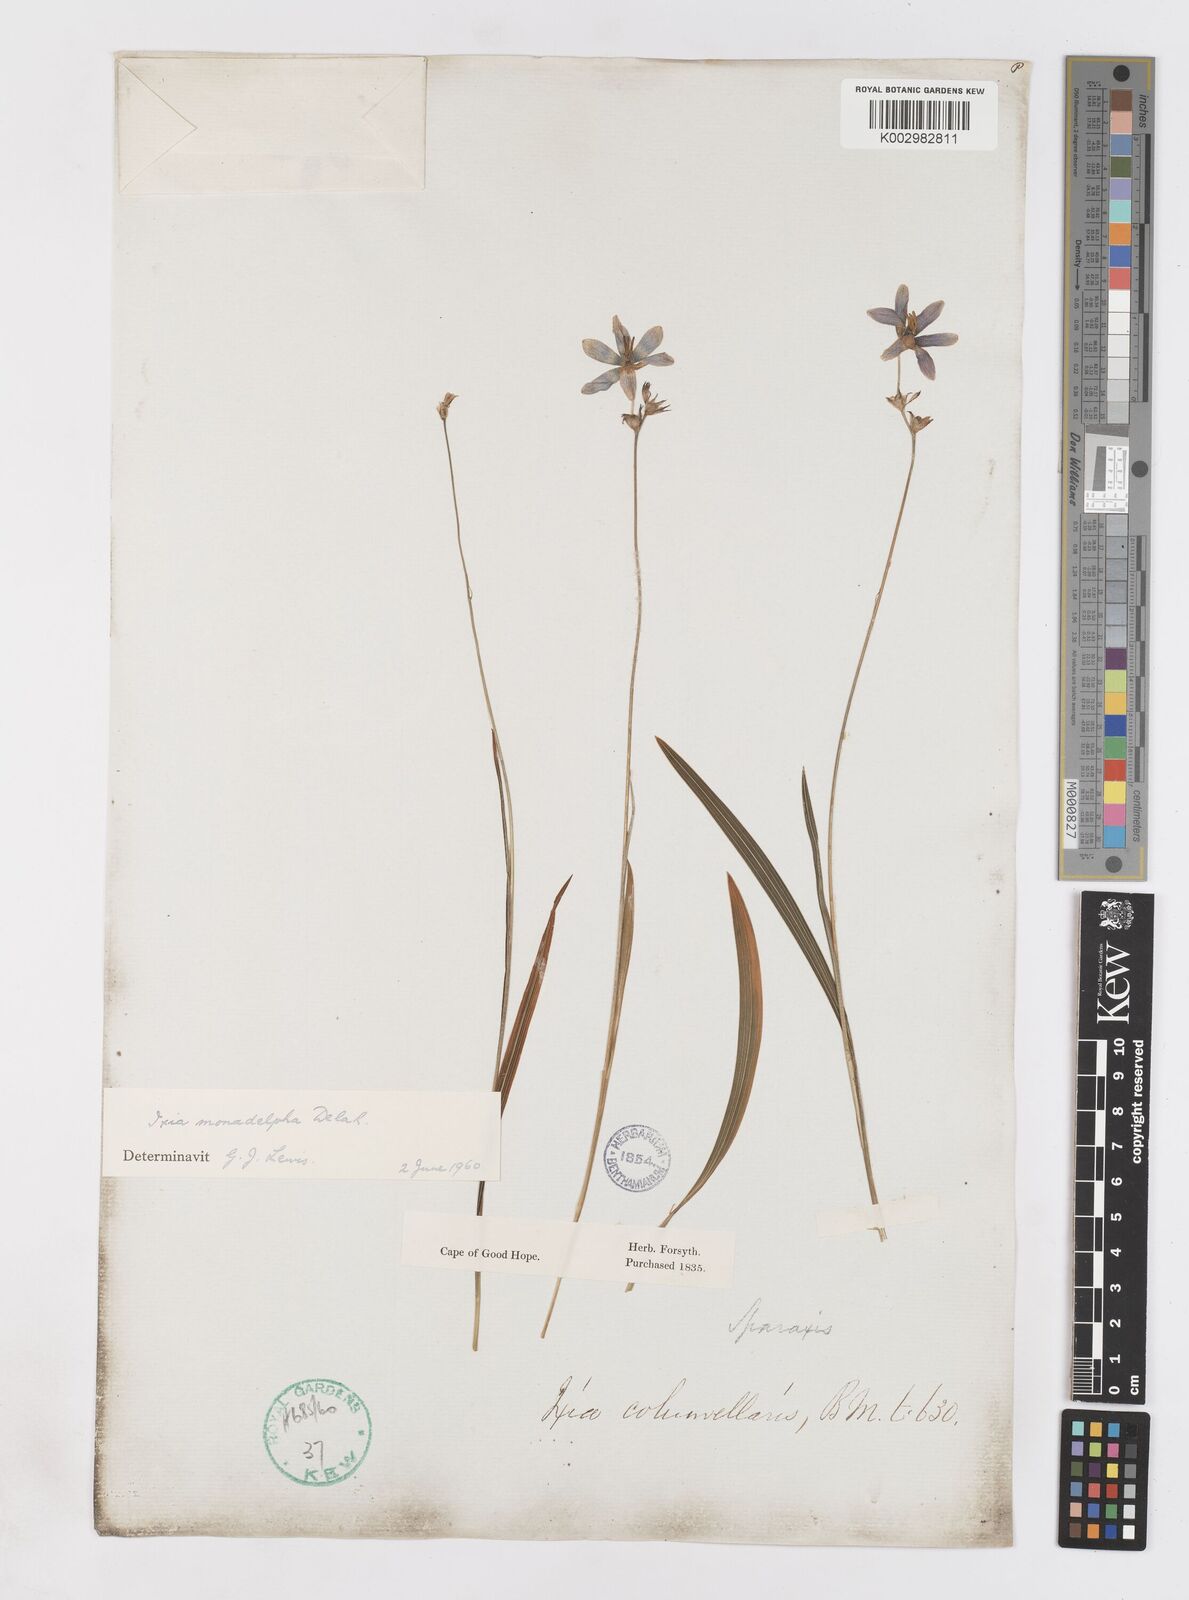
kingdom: Plantae
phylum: Tracheophyta
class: Liliopsida
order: Asparagales
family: Iridaceae
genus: Ixia
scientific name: Ixia monadelpha
